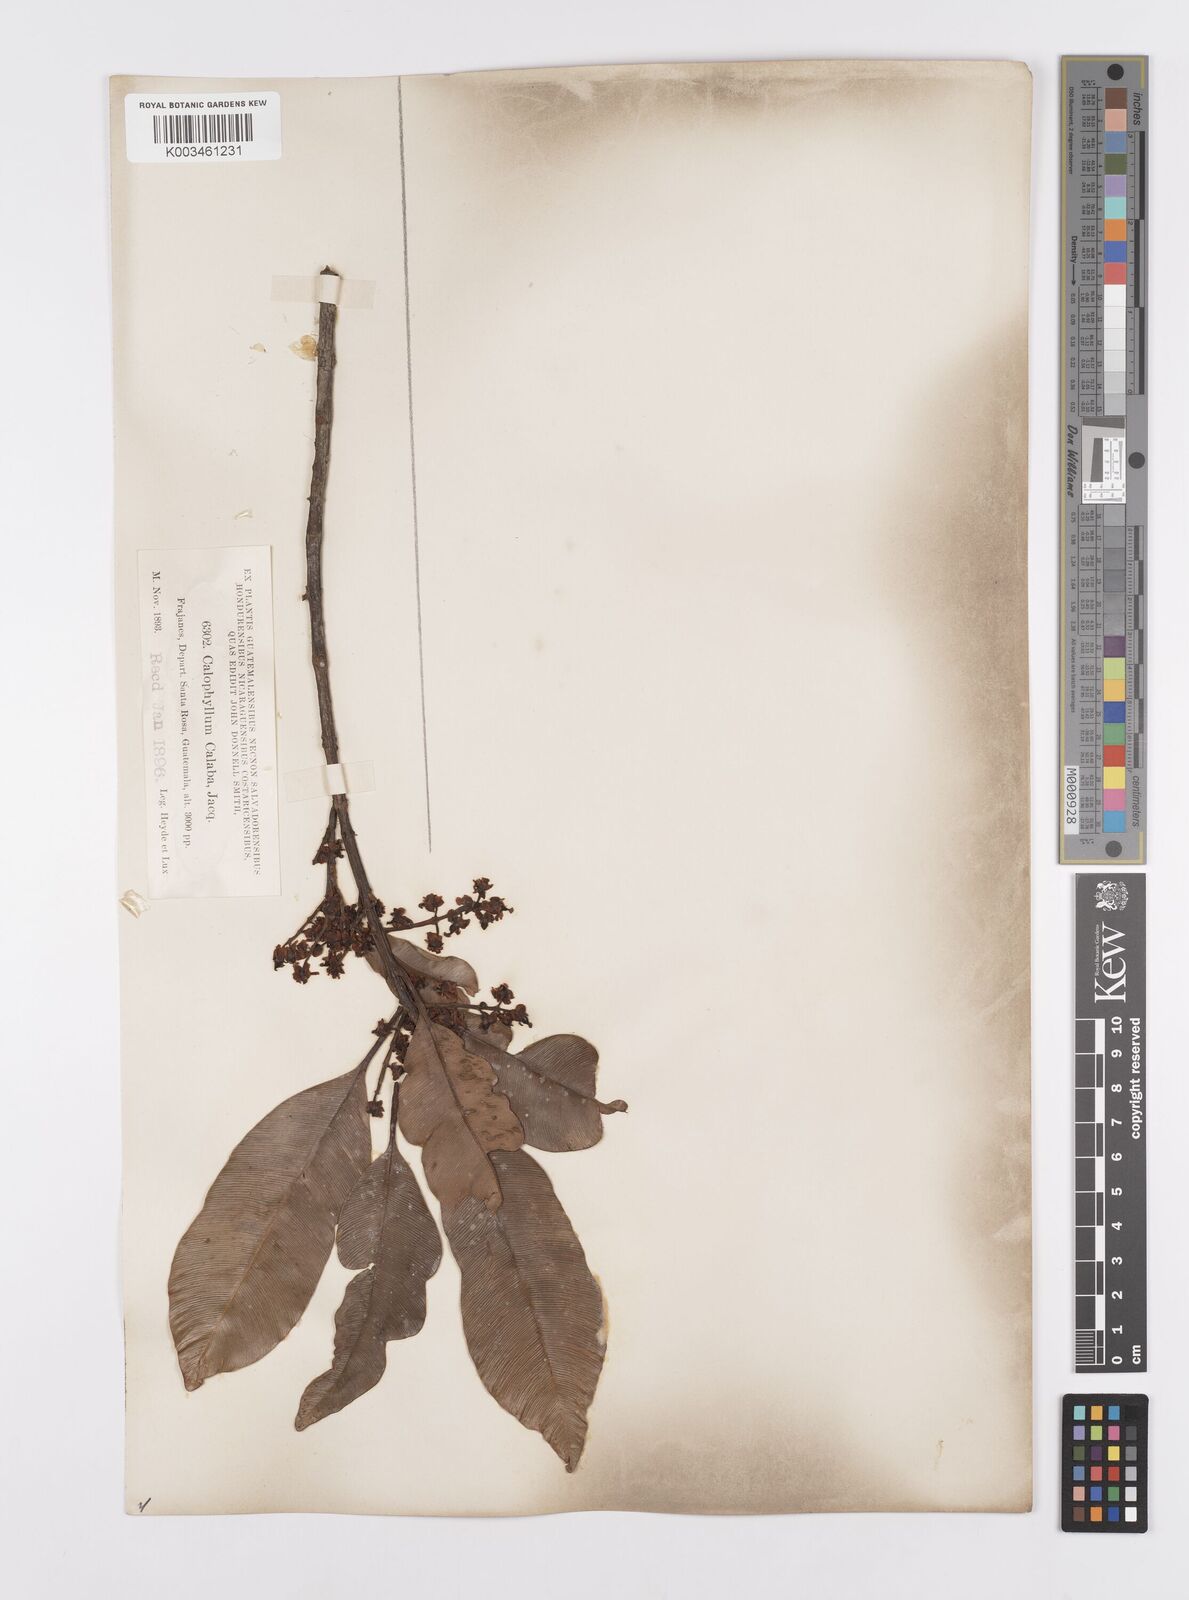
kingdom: Plantae
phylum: Tracheophyta
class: Magnoliopsida
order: Malpighiales
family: Calophyllaceae
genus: Calophyllum
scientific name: Calophyllum
